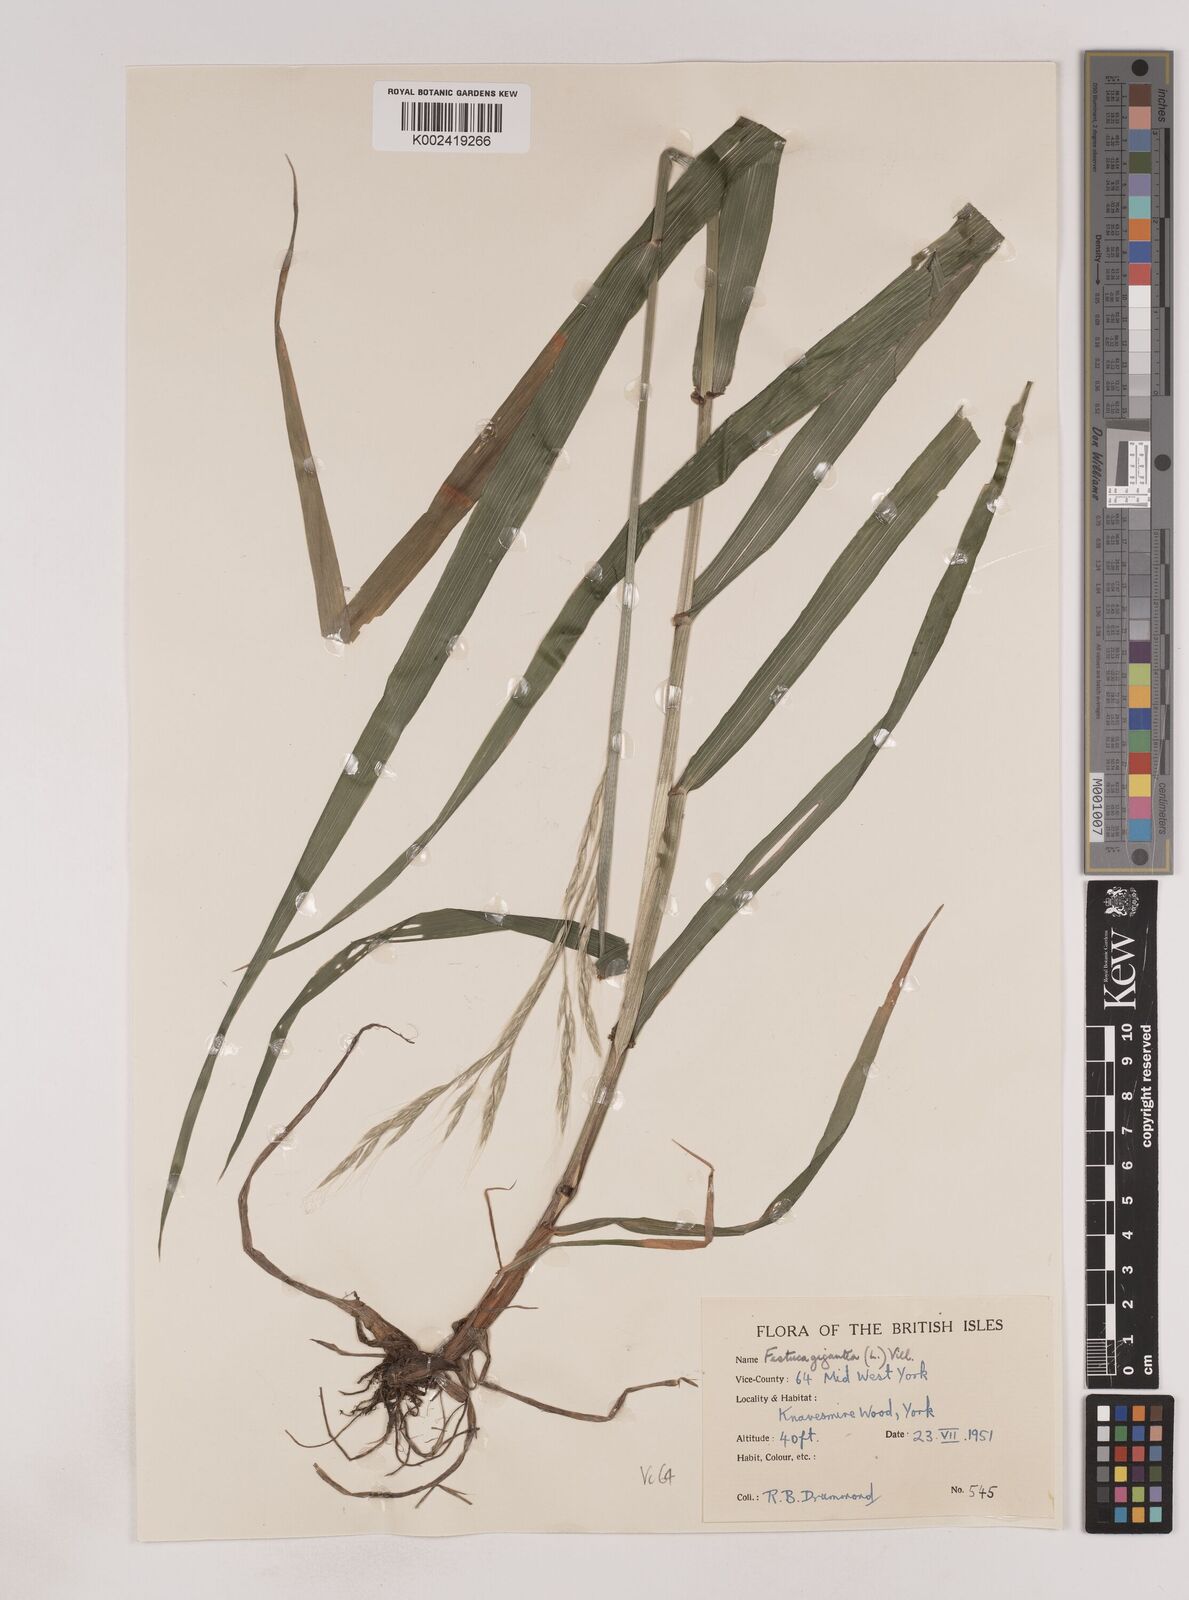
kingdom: Plantae
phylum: Tracheophyta
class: Liliopsida
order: Poales
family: Poaceae
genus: Lolium
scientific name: Lolium giganteum
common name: Giant fescue
